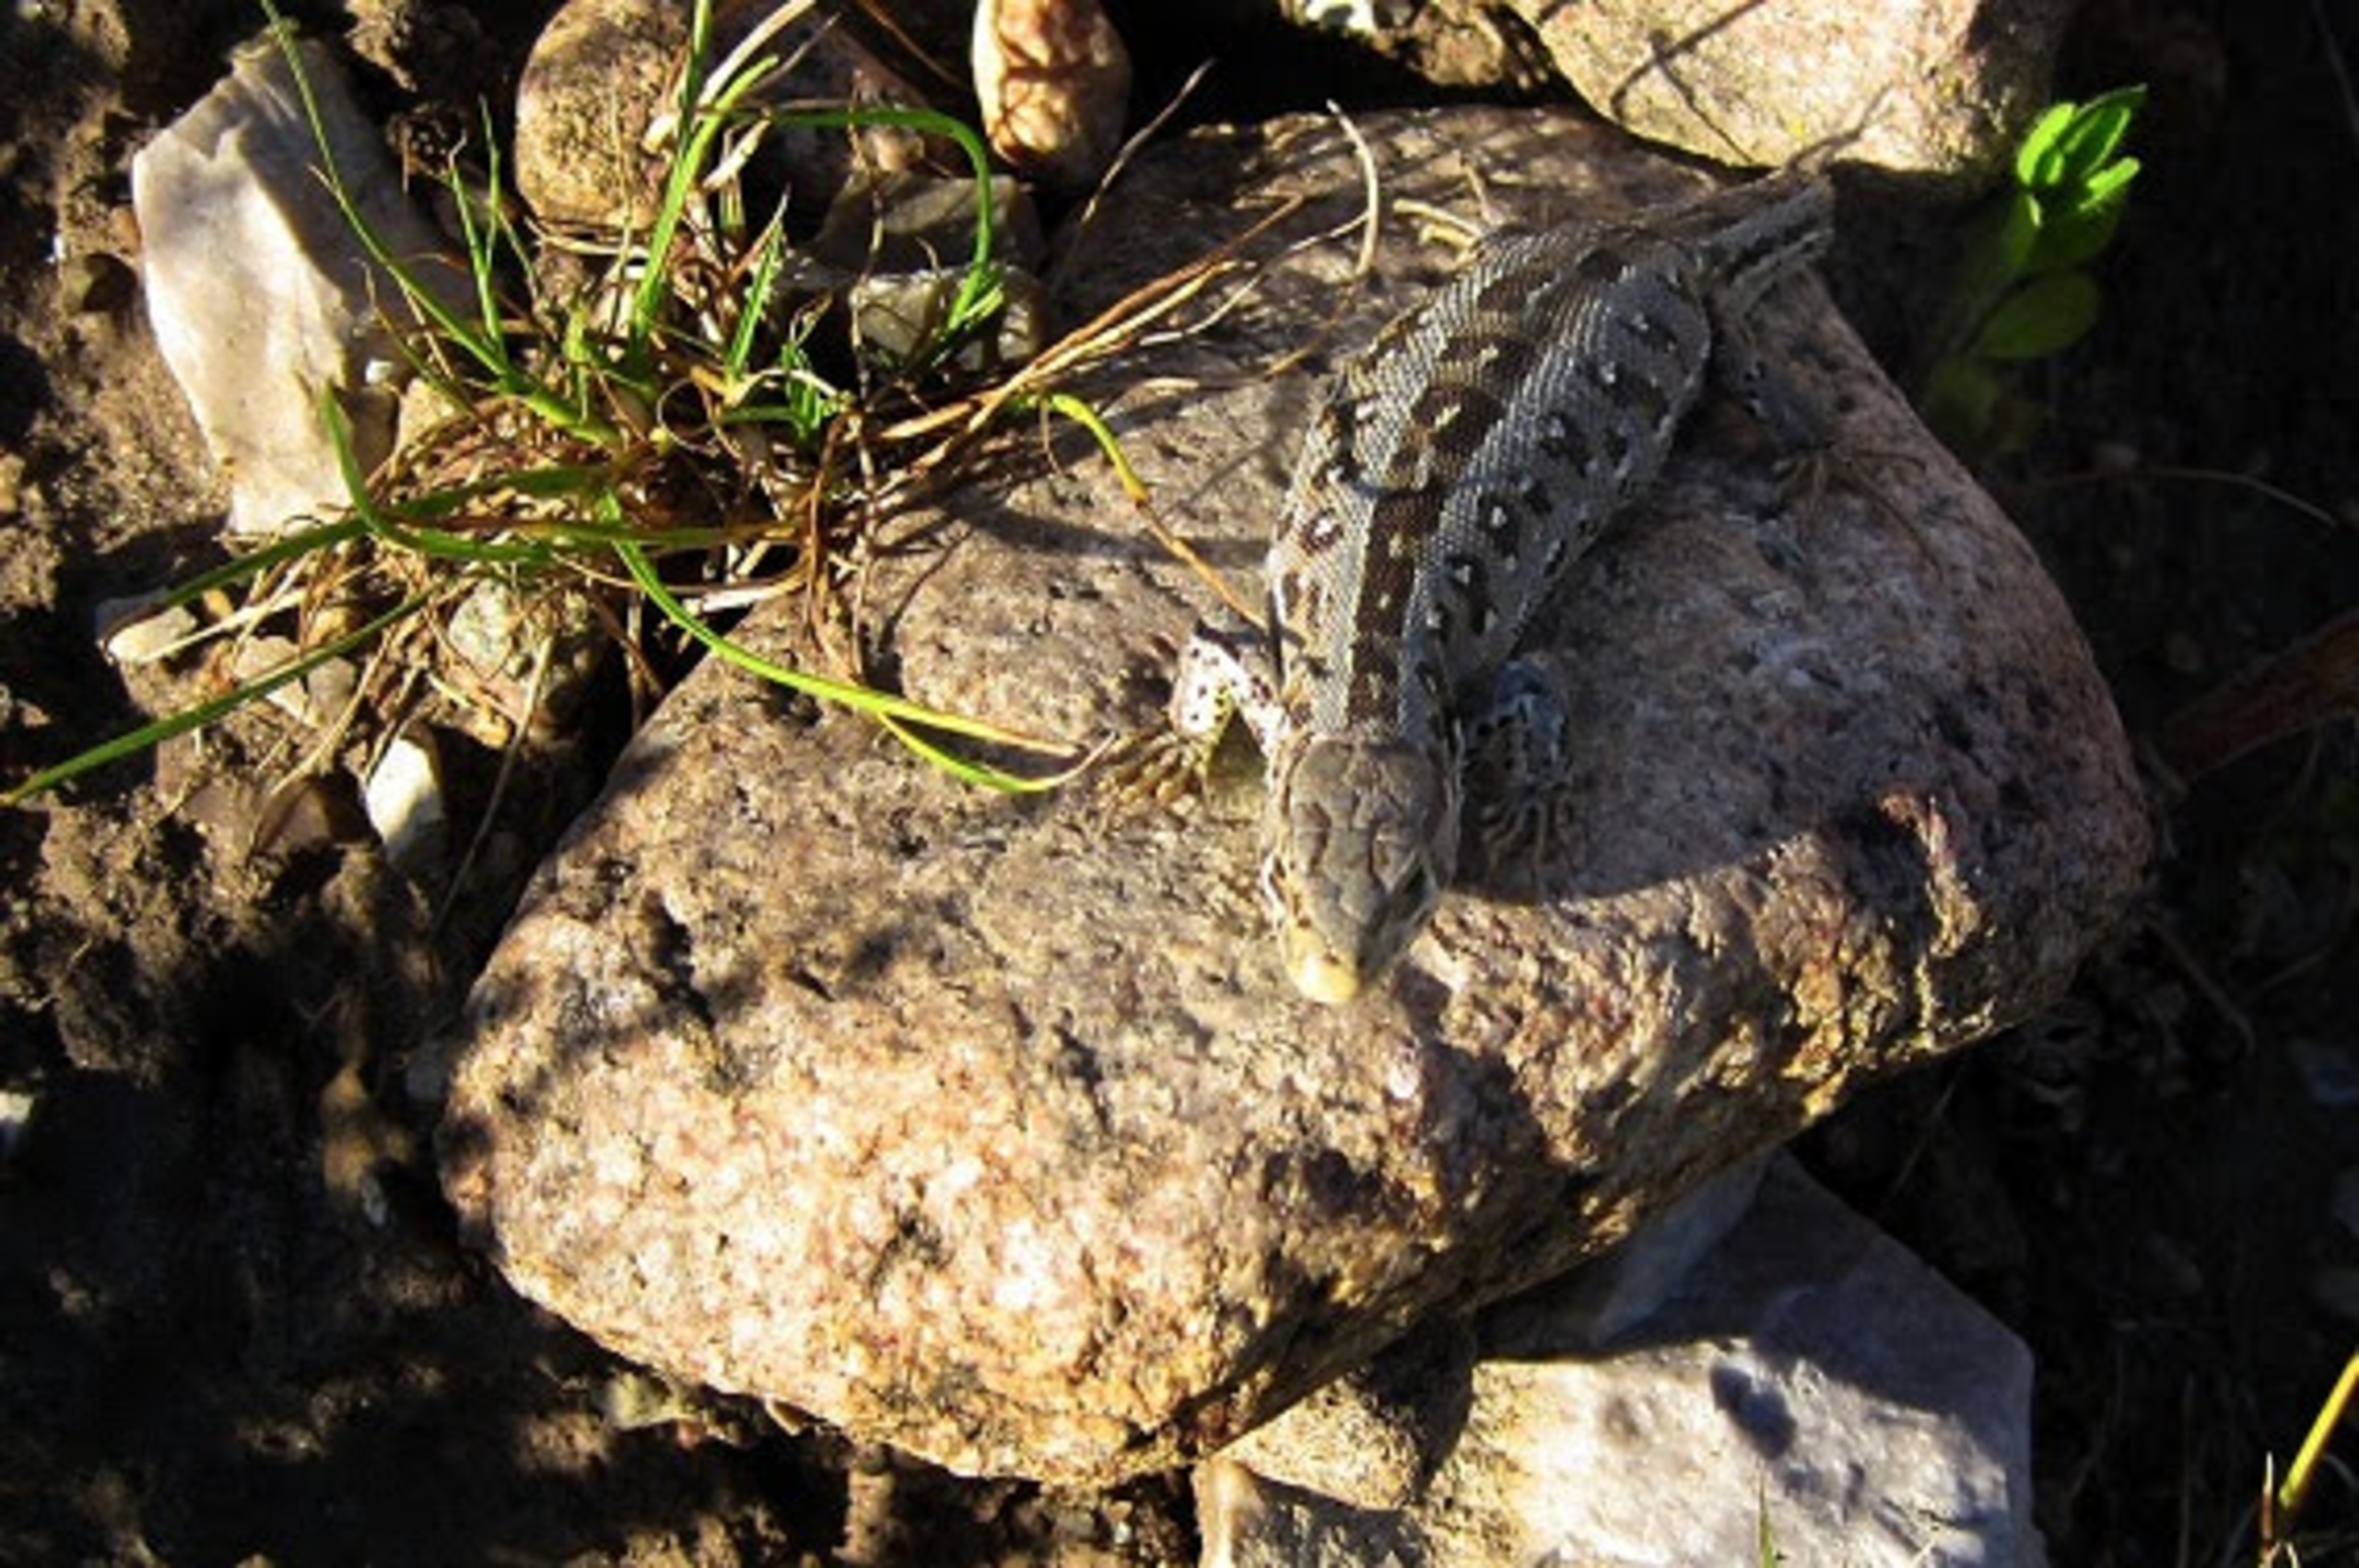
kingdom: Animalia
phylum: Chordata
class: Squamata
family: Lacertidae
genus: Lacerta
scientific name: Lacerta agilis
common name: Markfirben
